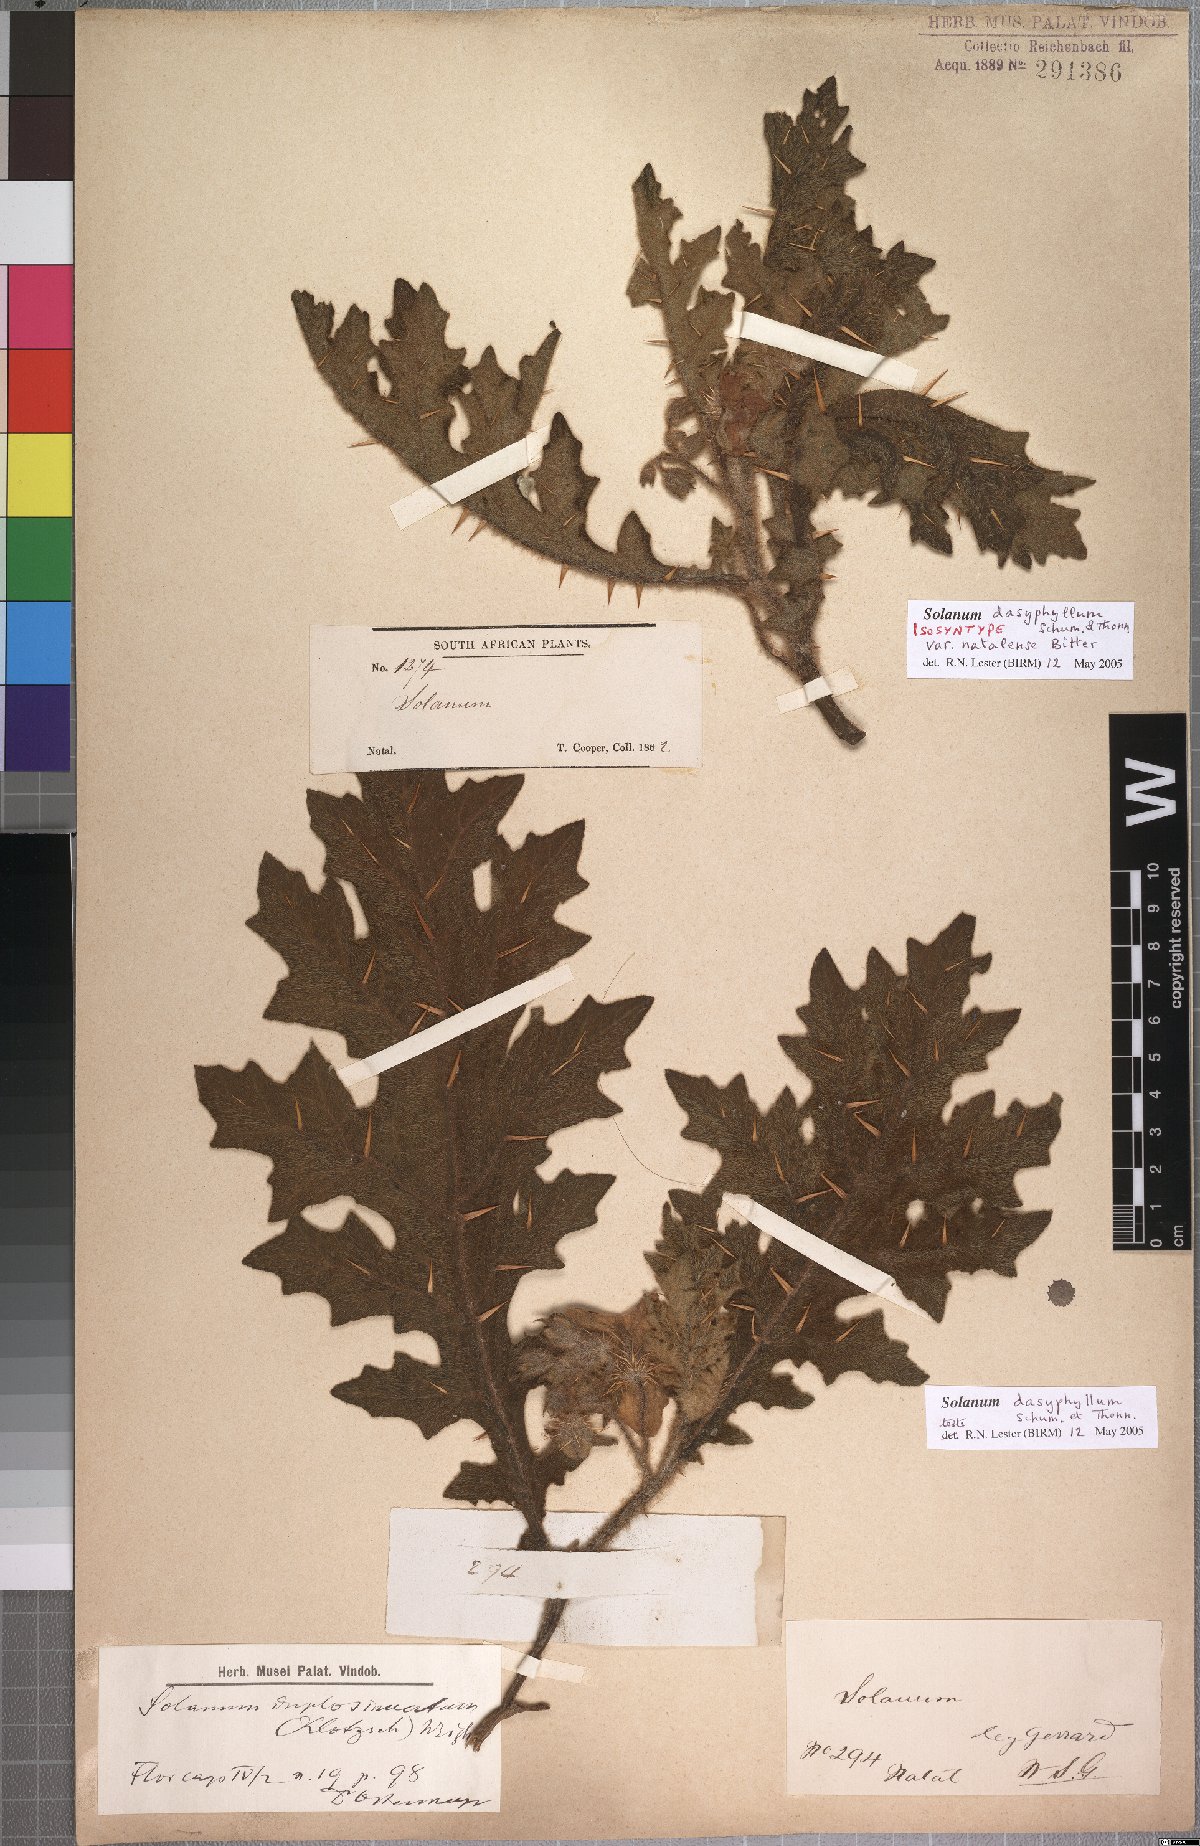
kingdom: Plantae
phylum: Tracheophyta
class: Magnoliopsida
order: Solanales
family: Solanaceae
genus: Solanum
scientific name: Solanum dasyphyllum
